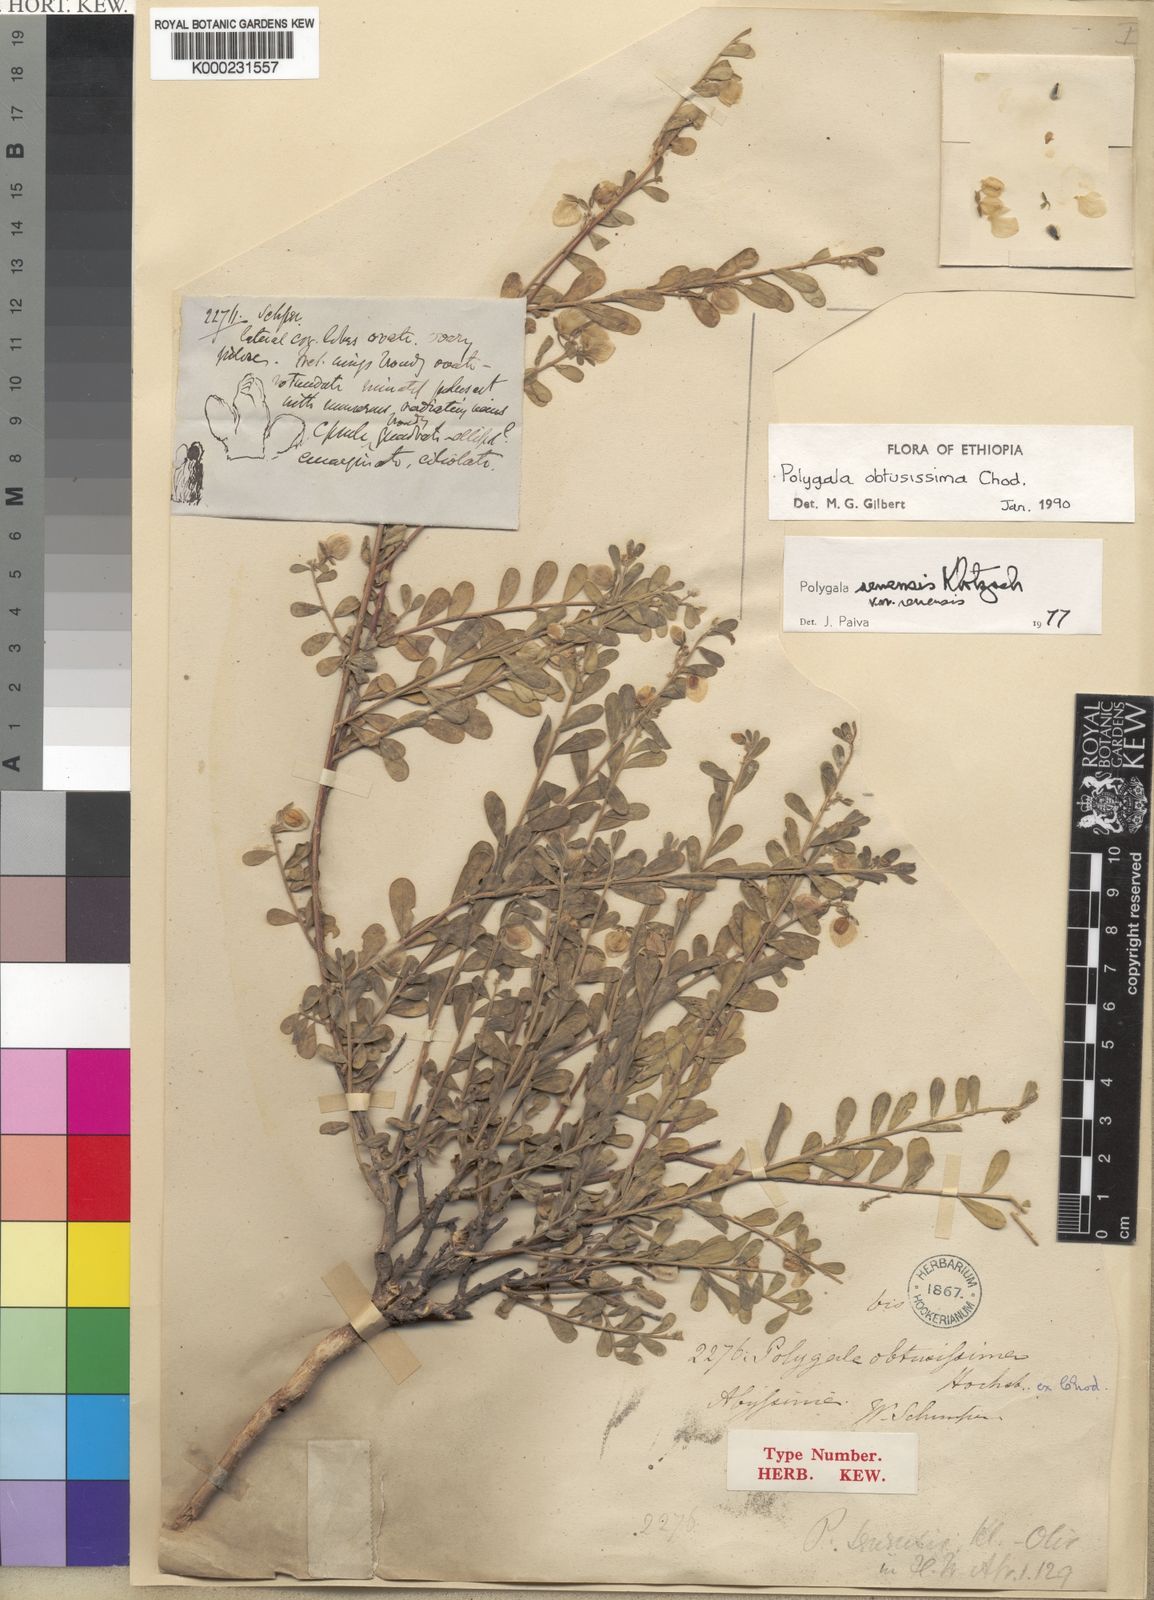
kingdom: Plantae
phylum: Tracheophyta
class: Magnoliopsida
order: Fabales
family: Polygalaceae
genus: Polygala
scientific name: Polygala senensis
